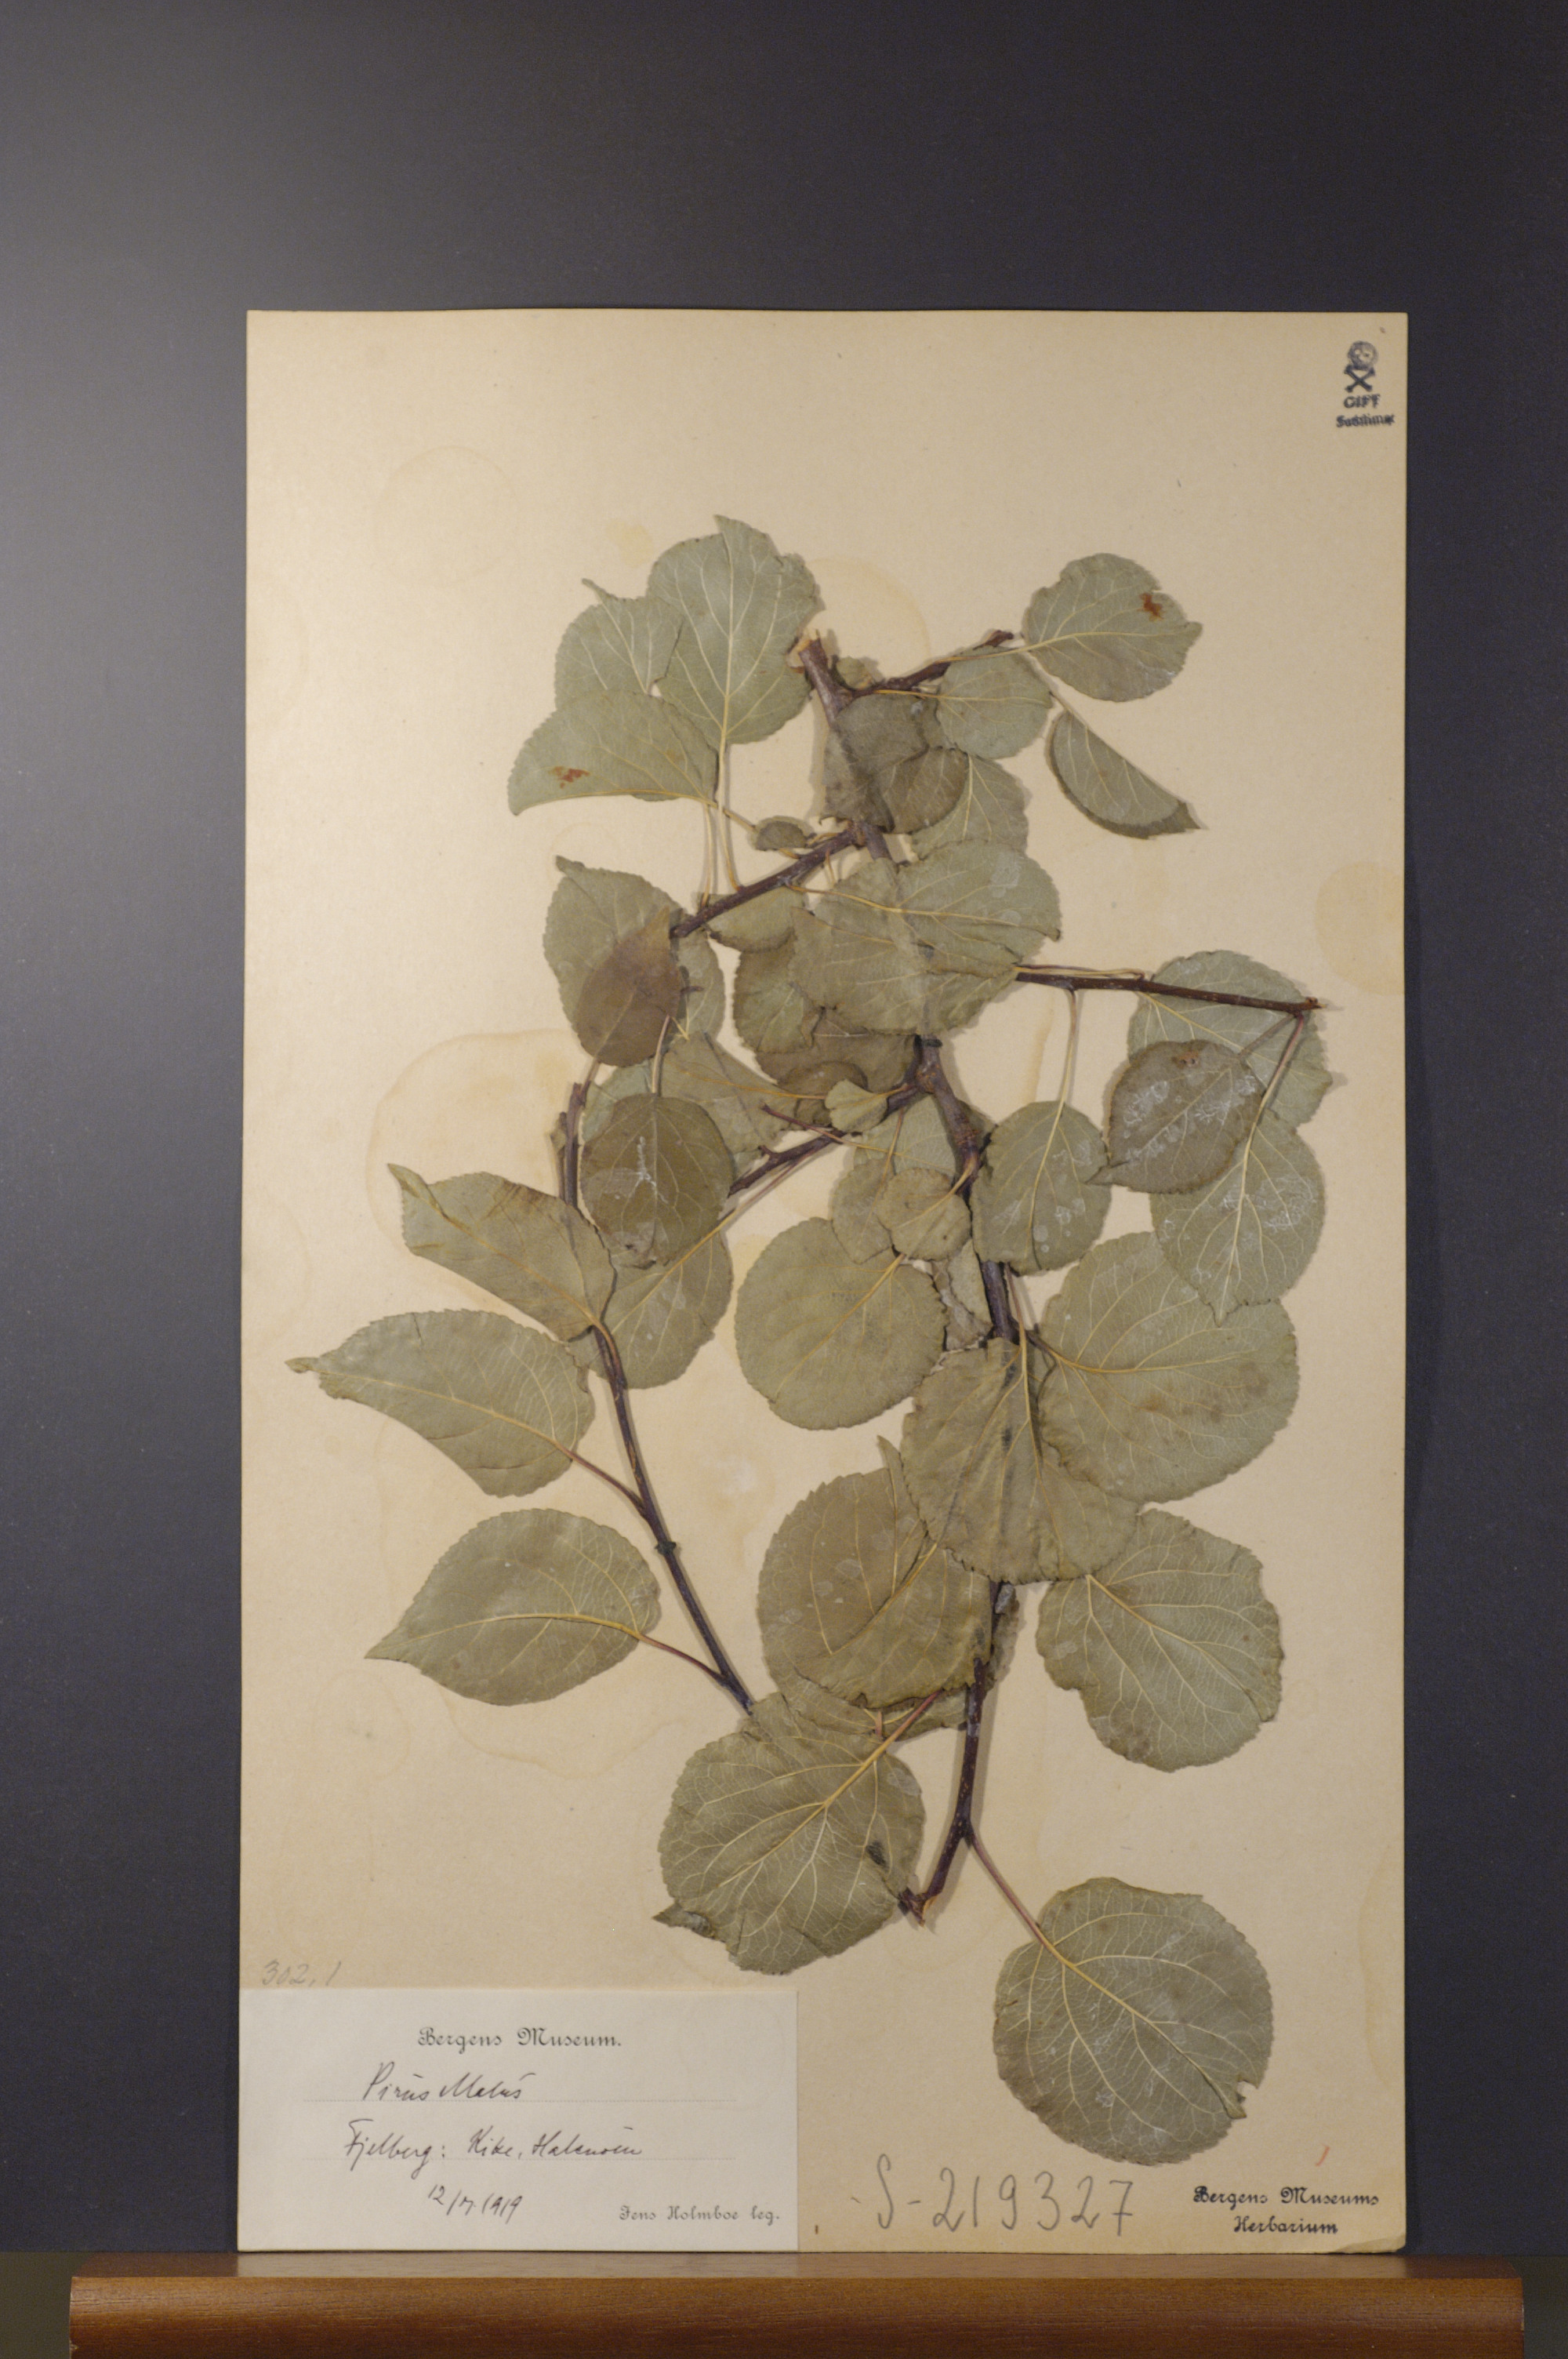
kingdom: Plantae
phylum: Tracheophyta
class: Magnoliopsida
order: Rosales
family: Rosaceae
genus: Malus
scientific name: Malus domestica
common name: Apple
